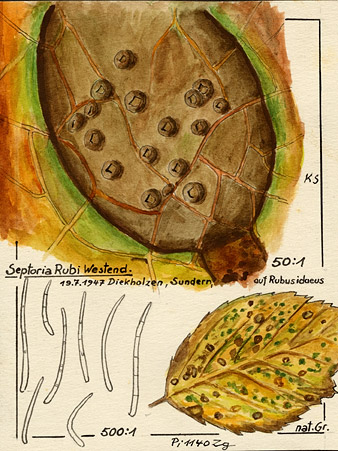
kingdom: Plantae
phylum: Tracheophyta
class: Magnoliopsida
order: Rosales
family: Rosaceae
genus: Rubus
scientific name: Rubus idaeus
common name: Raspberry
